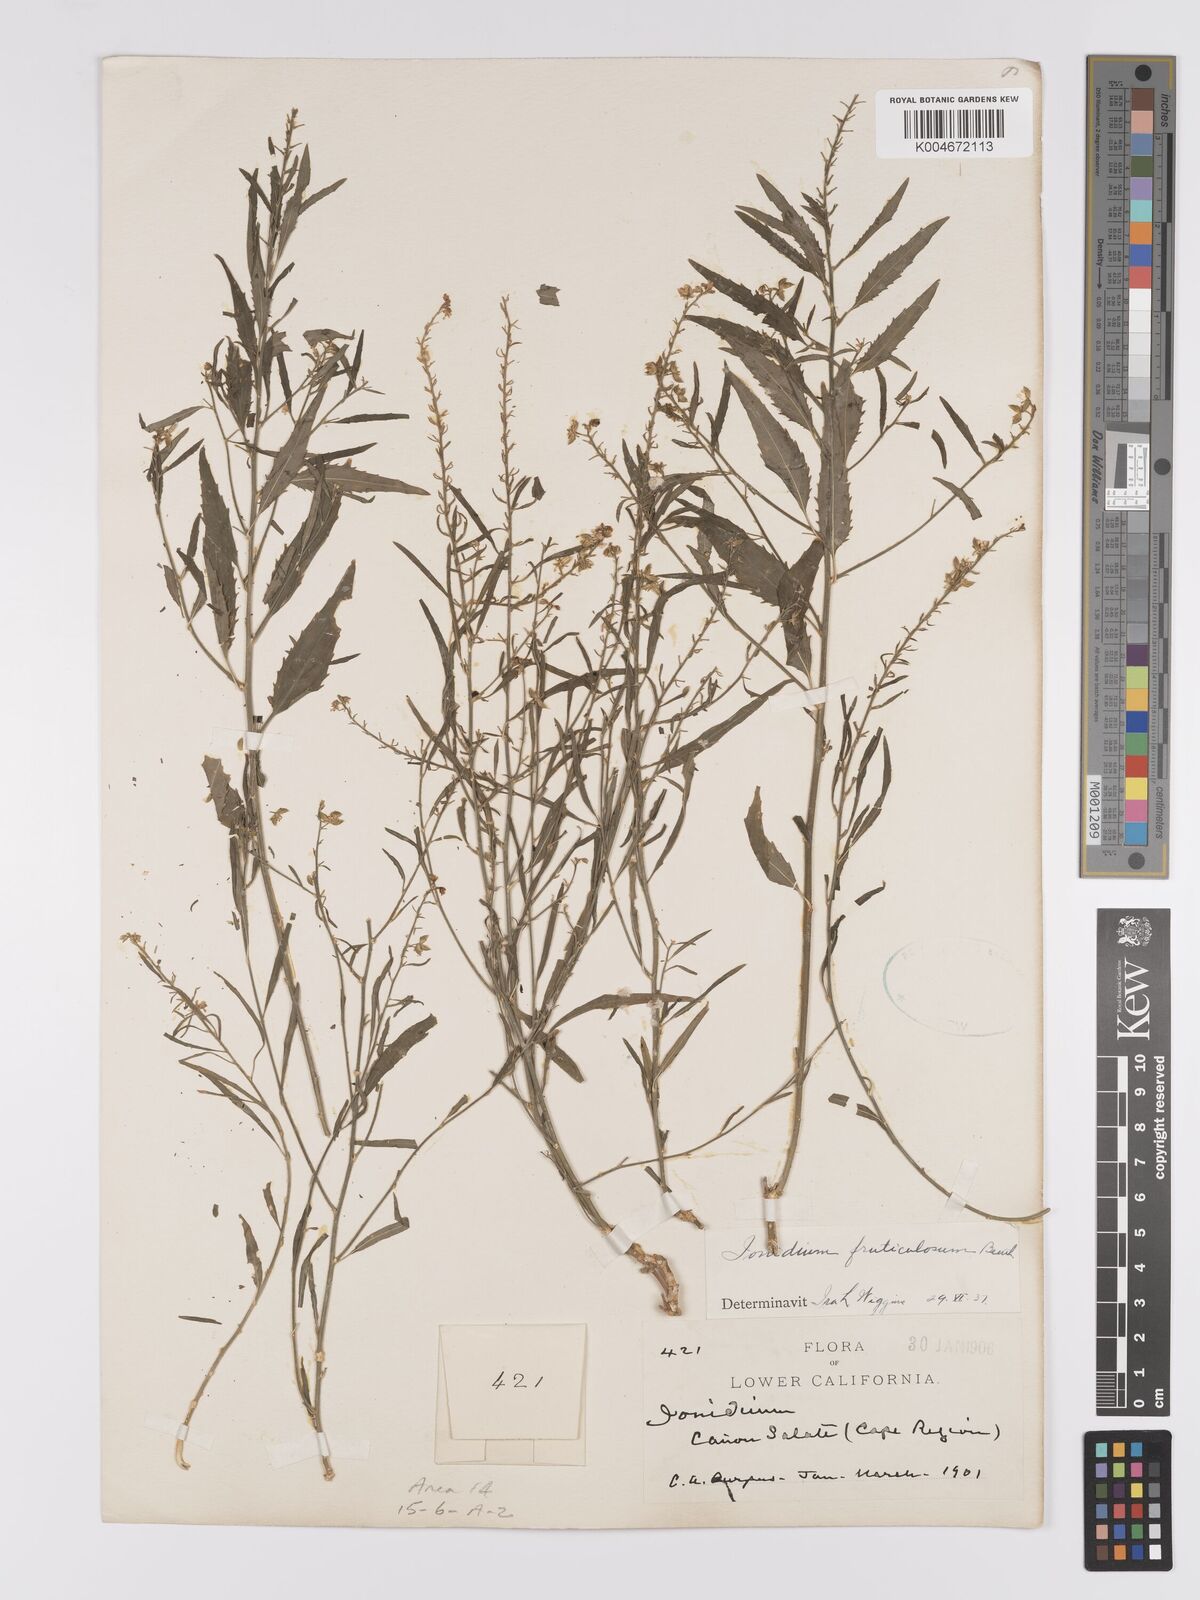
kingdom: Plantae
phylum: Tracheophyta
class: Magnoliopsida
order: Malpighiales
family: Violaceae
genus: Hybanthus
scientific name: Hybanthus fruticulosus
